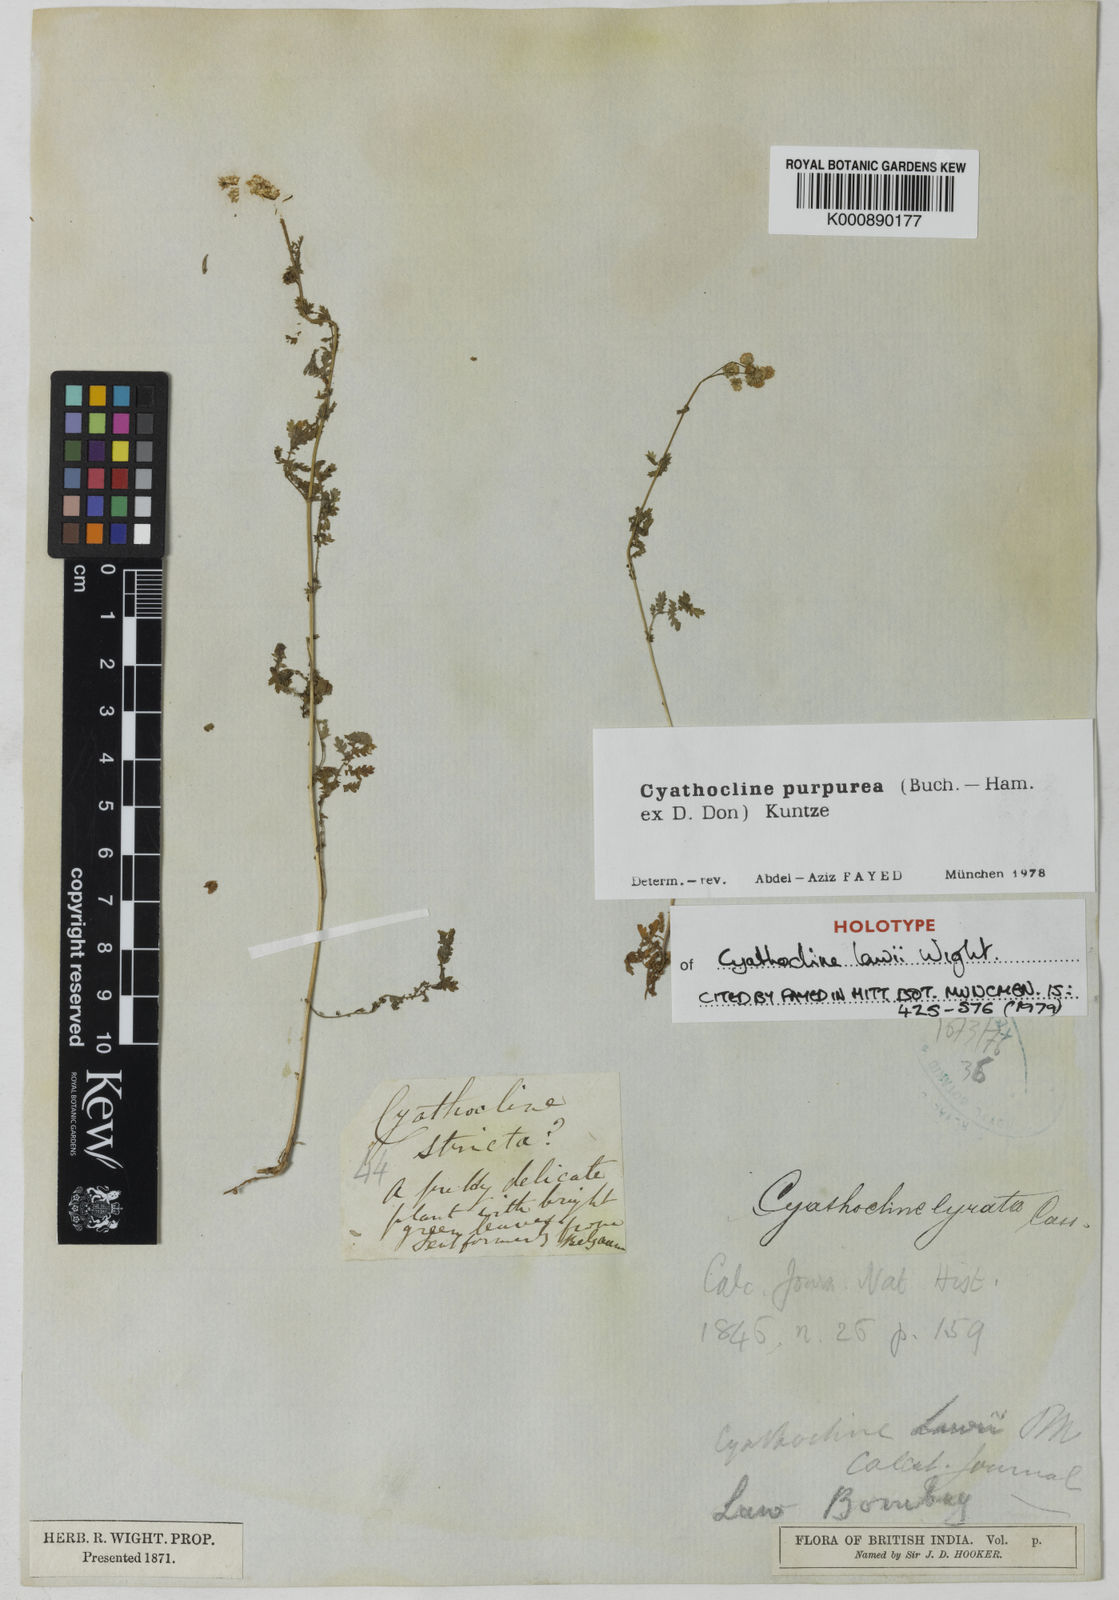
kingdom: Plantae
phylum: Tracheophyta
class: Magnoliopsida
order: Asterales
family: Asteraceae
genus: Cyathocline
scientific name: Cyathocline purpurea
